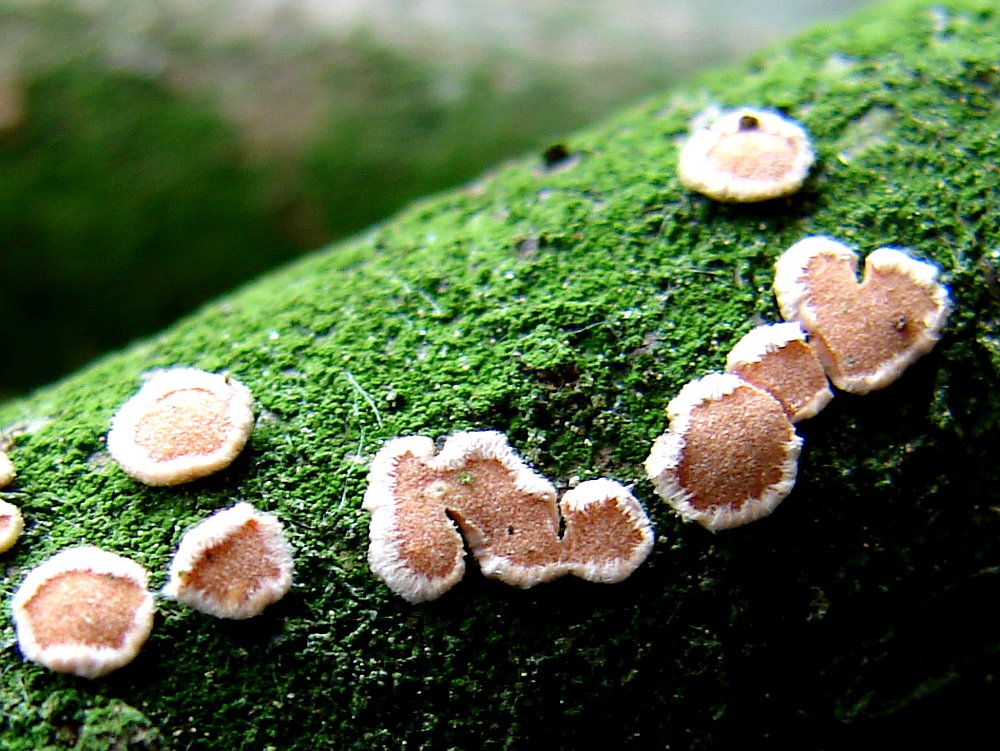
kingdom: Fungi
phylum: Basidiomycota
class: Agaricomycetes
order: Russulales
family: Stereaceae
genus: Aleurodiscus
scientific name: Aleurodiscus amorphus
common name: orange skiveskorpe
